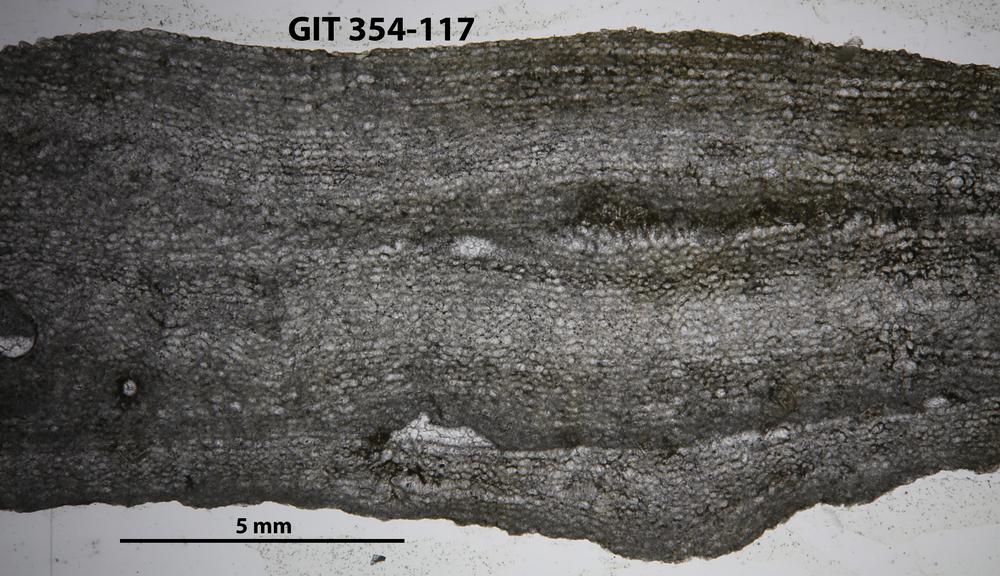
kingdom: Animalia
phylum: Porifera
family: Clathrodictyidae
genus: Clathrodictyon
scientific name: Clathrodictyon boreale
